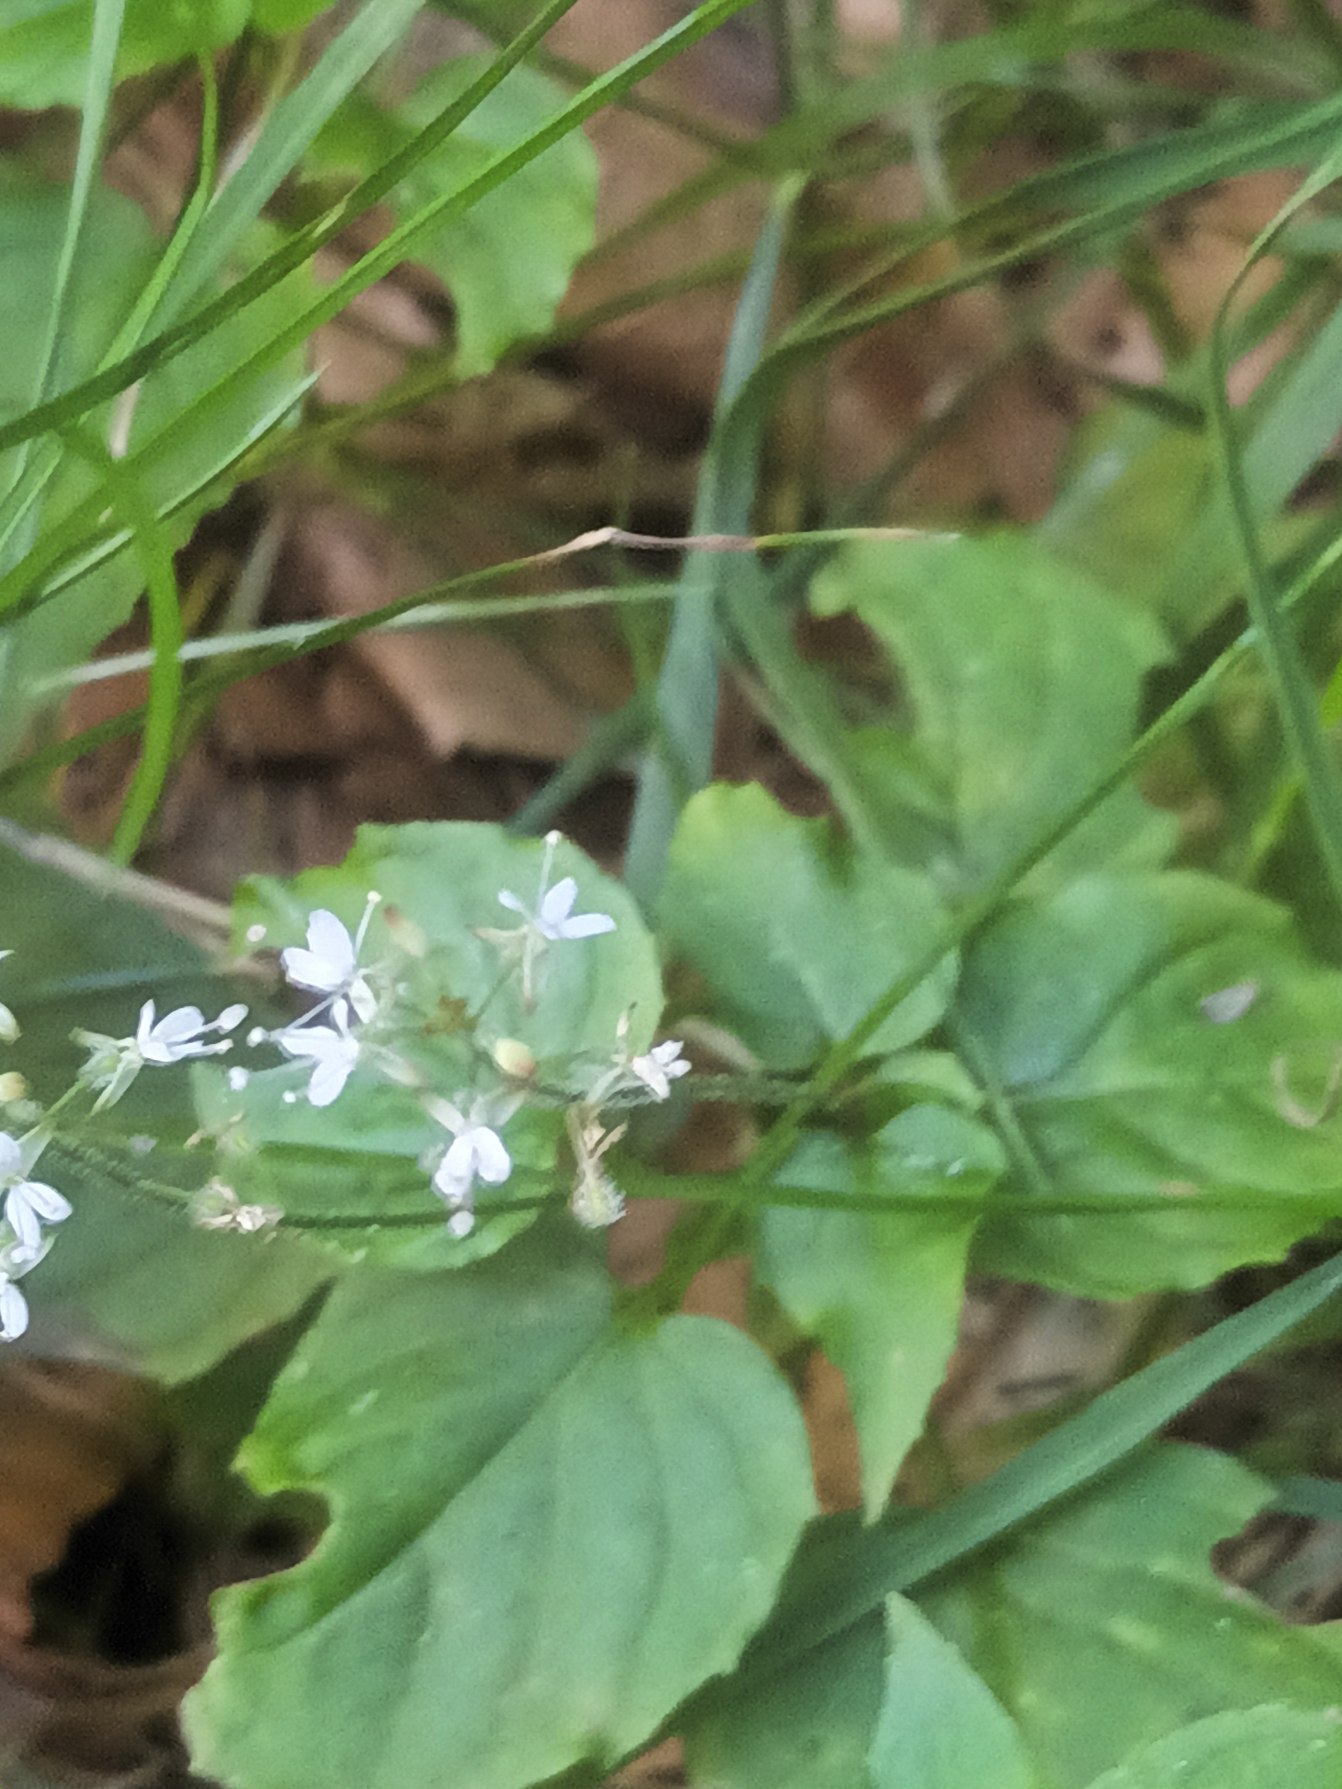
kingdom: Plantae
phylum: Tracheophyta
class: Magnoliopsida
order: Myrtales
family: Onagraceae
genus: Circaea
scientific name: Circaea intermedia
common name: Spidsbladet steffensurt
